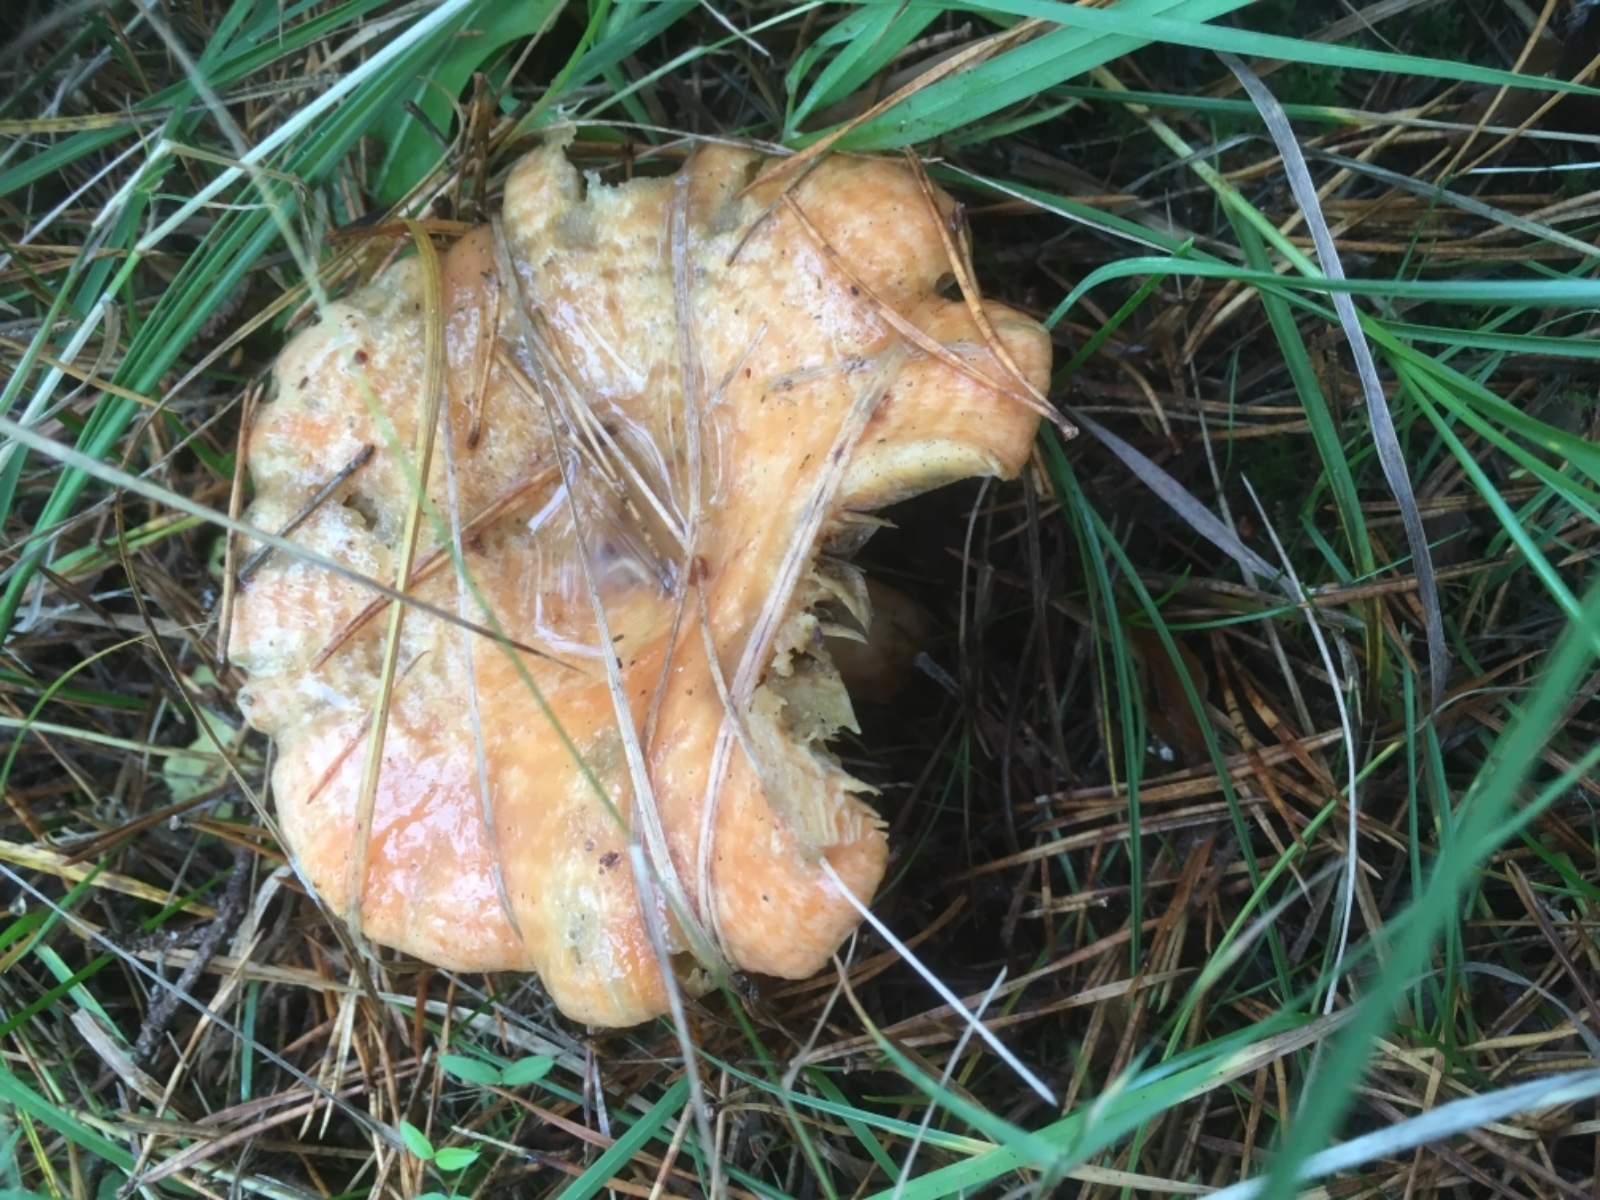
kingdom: Fungi
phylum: Basidiomycota
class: Agaricomycetes
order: Russulales
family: Russulaceae
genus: Lactarius
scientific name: Lactarius deliciosus
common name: velsmagende mælkehat
